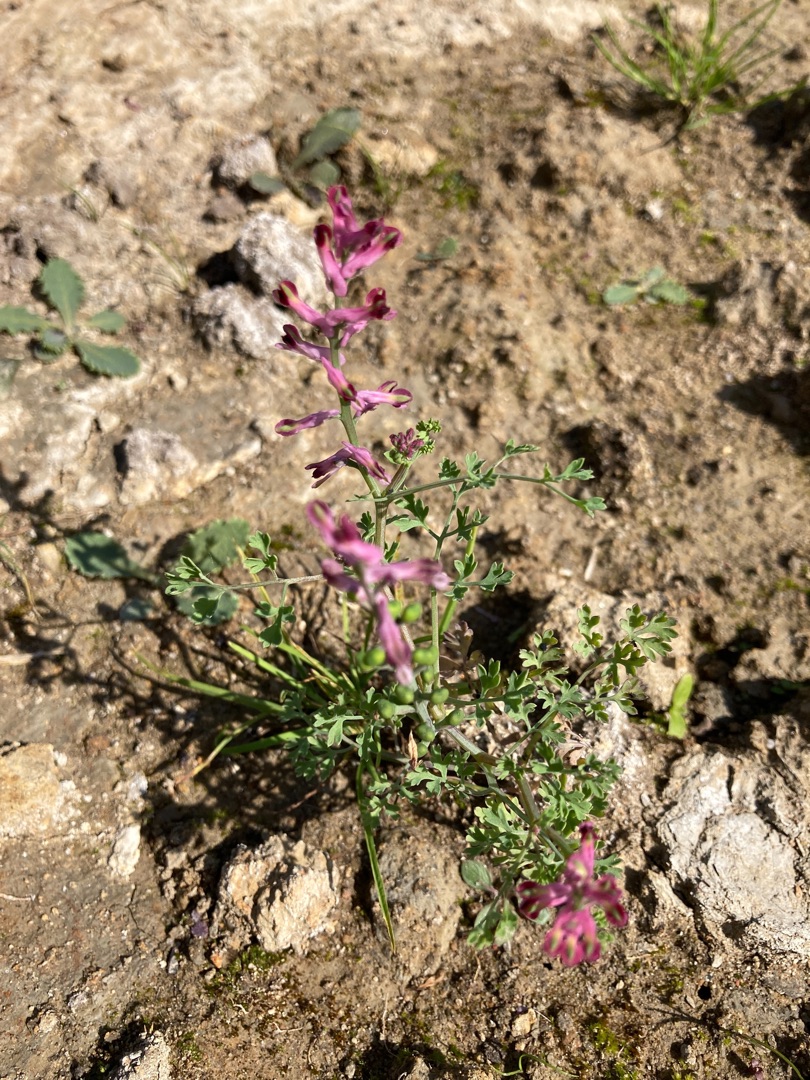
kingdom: Plantae
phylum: Tracheophyta
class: Magnoliopsida
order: Ranunculales
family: Papaveraceae
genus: Fumaria
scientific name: Fumaria officinalis
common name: Læge-jordrøg
